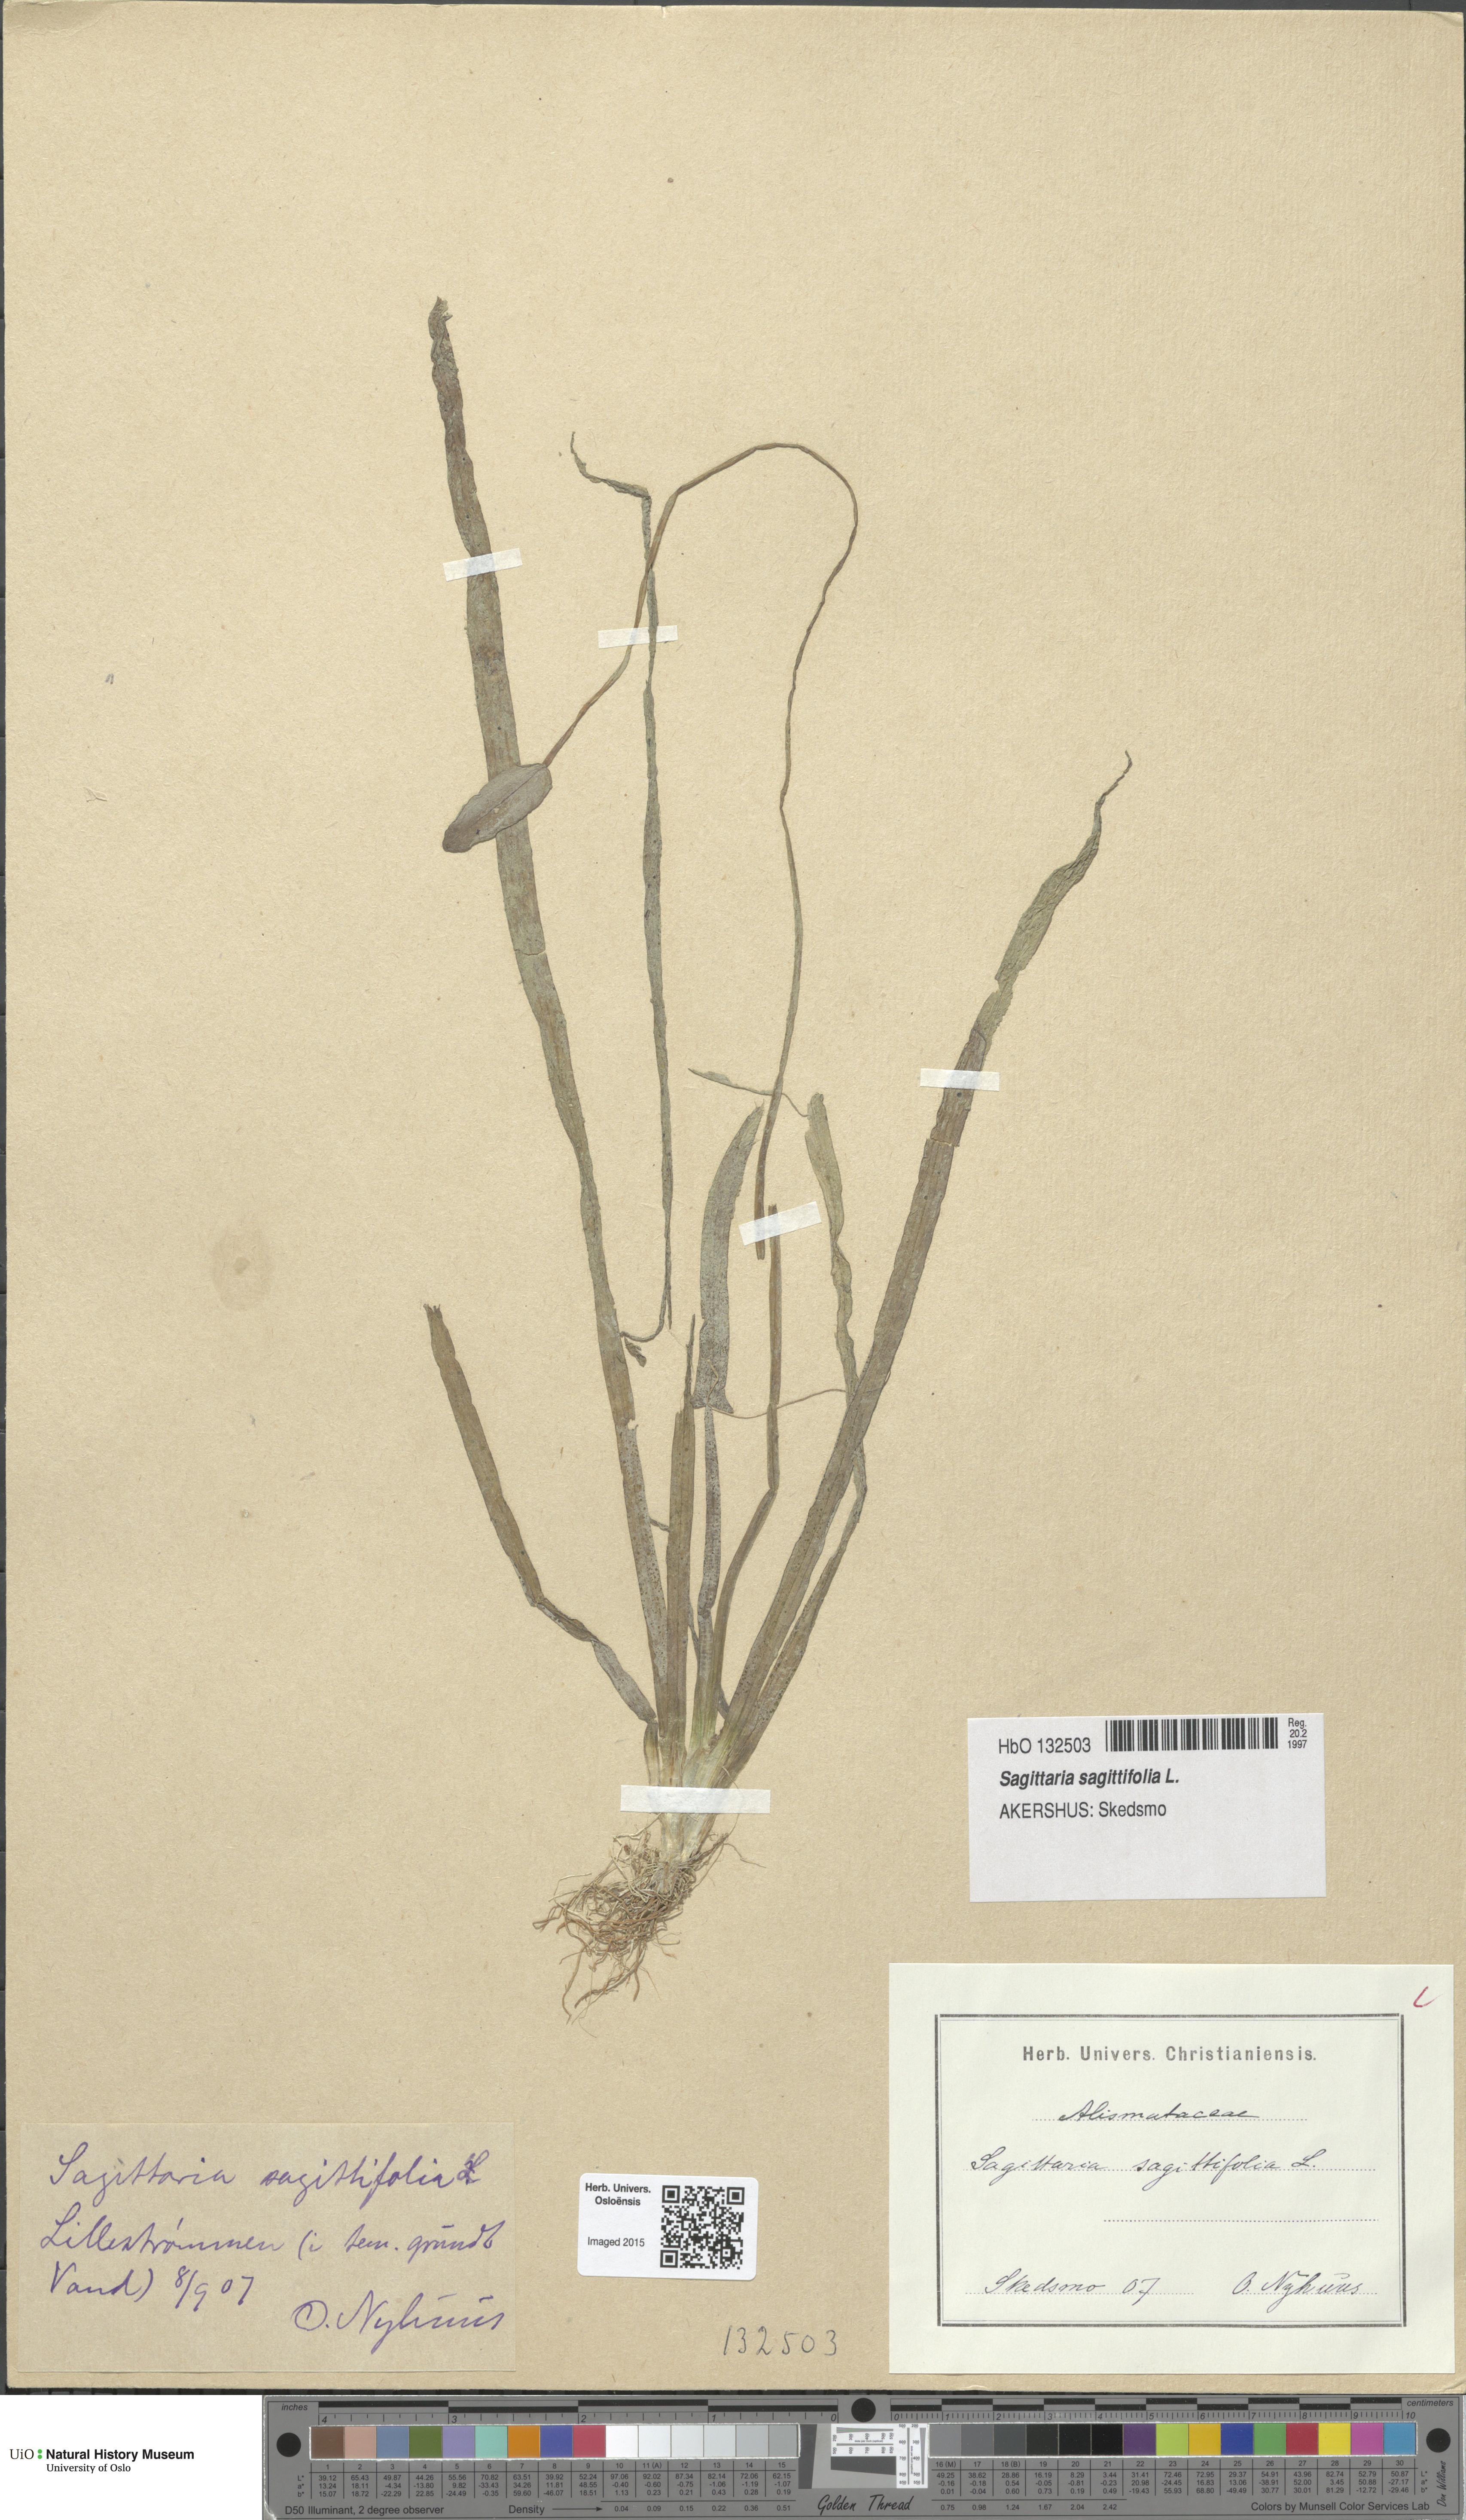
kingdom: Plantae
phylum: Tracheophyta
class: Liliopsida
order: Alismatales
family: Alismataceae
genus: Sagittaria
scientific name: Sagittaria sagittifolia
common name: Arrowhead
